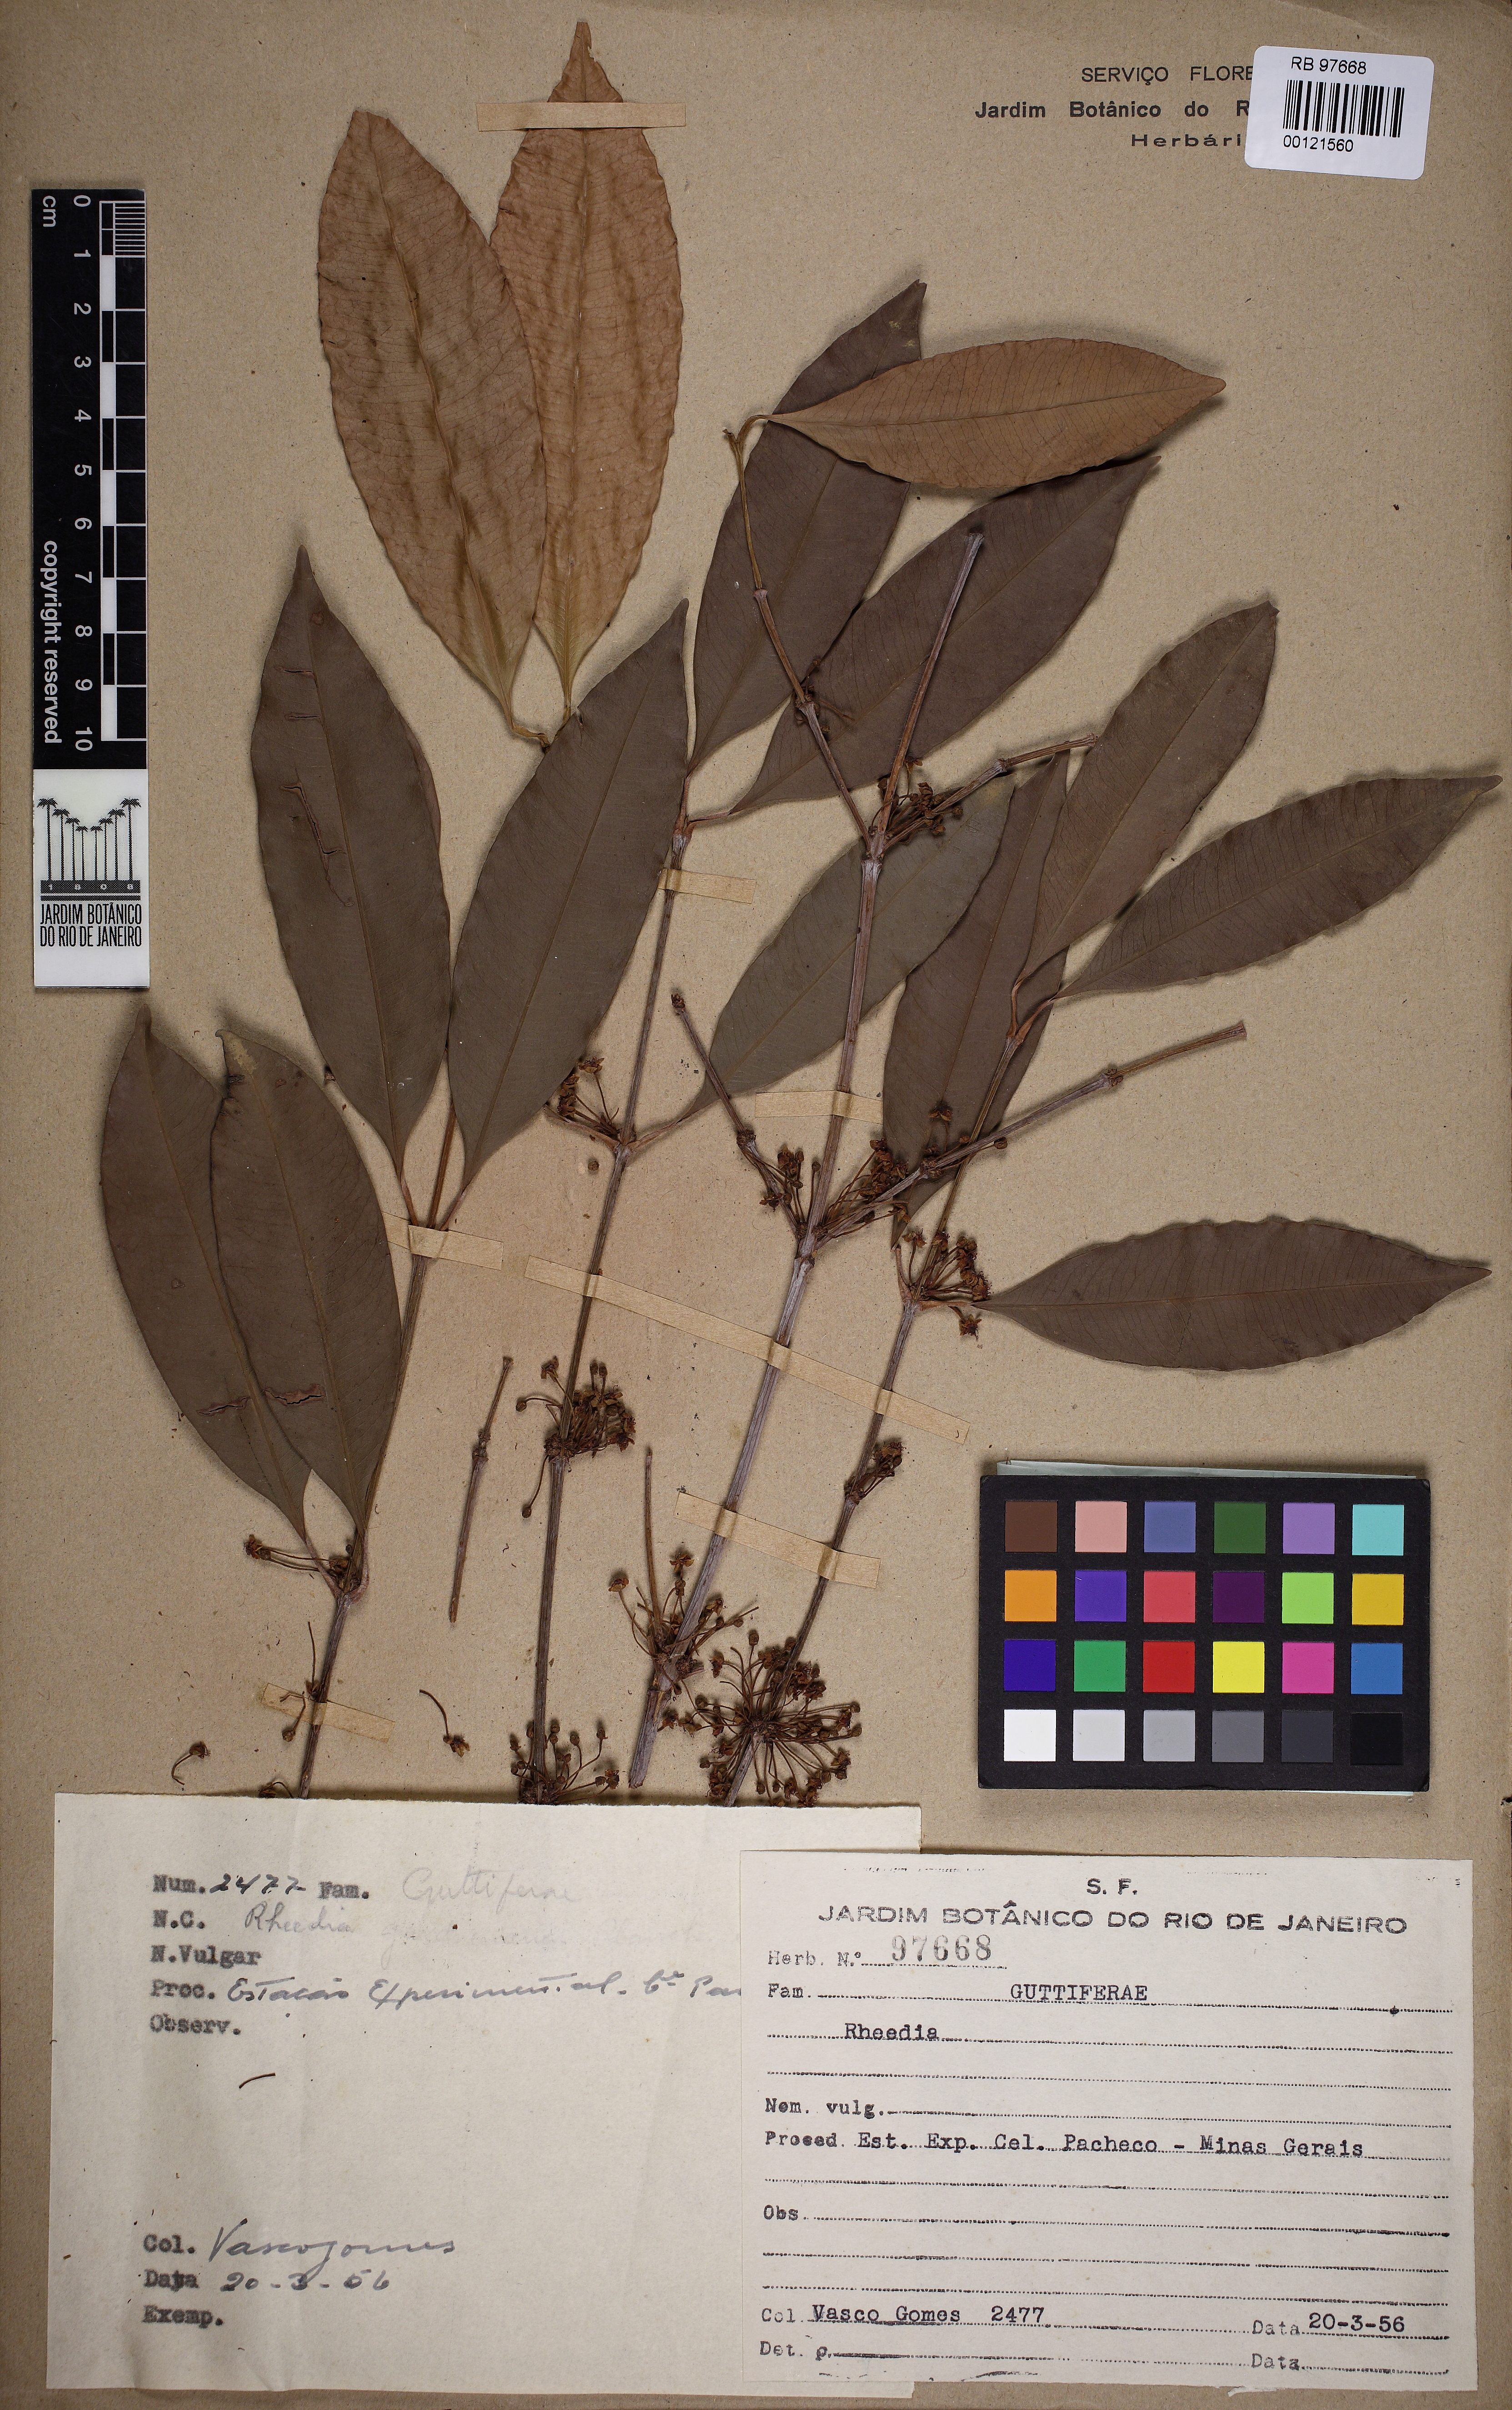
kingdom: Plantae
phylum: Tracheophyta
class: Magnoliopsida
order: Malpighiales
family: Clusiaceae
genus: Garcinia
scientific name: Garcinia gardneriana
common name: Achacha
